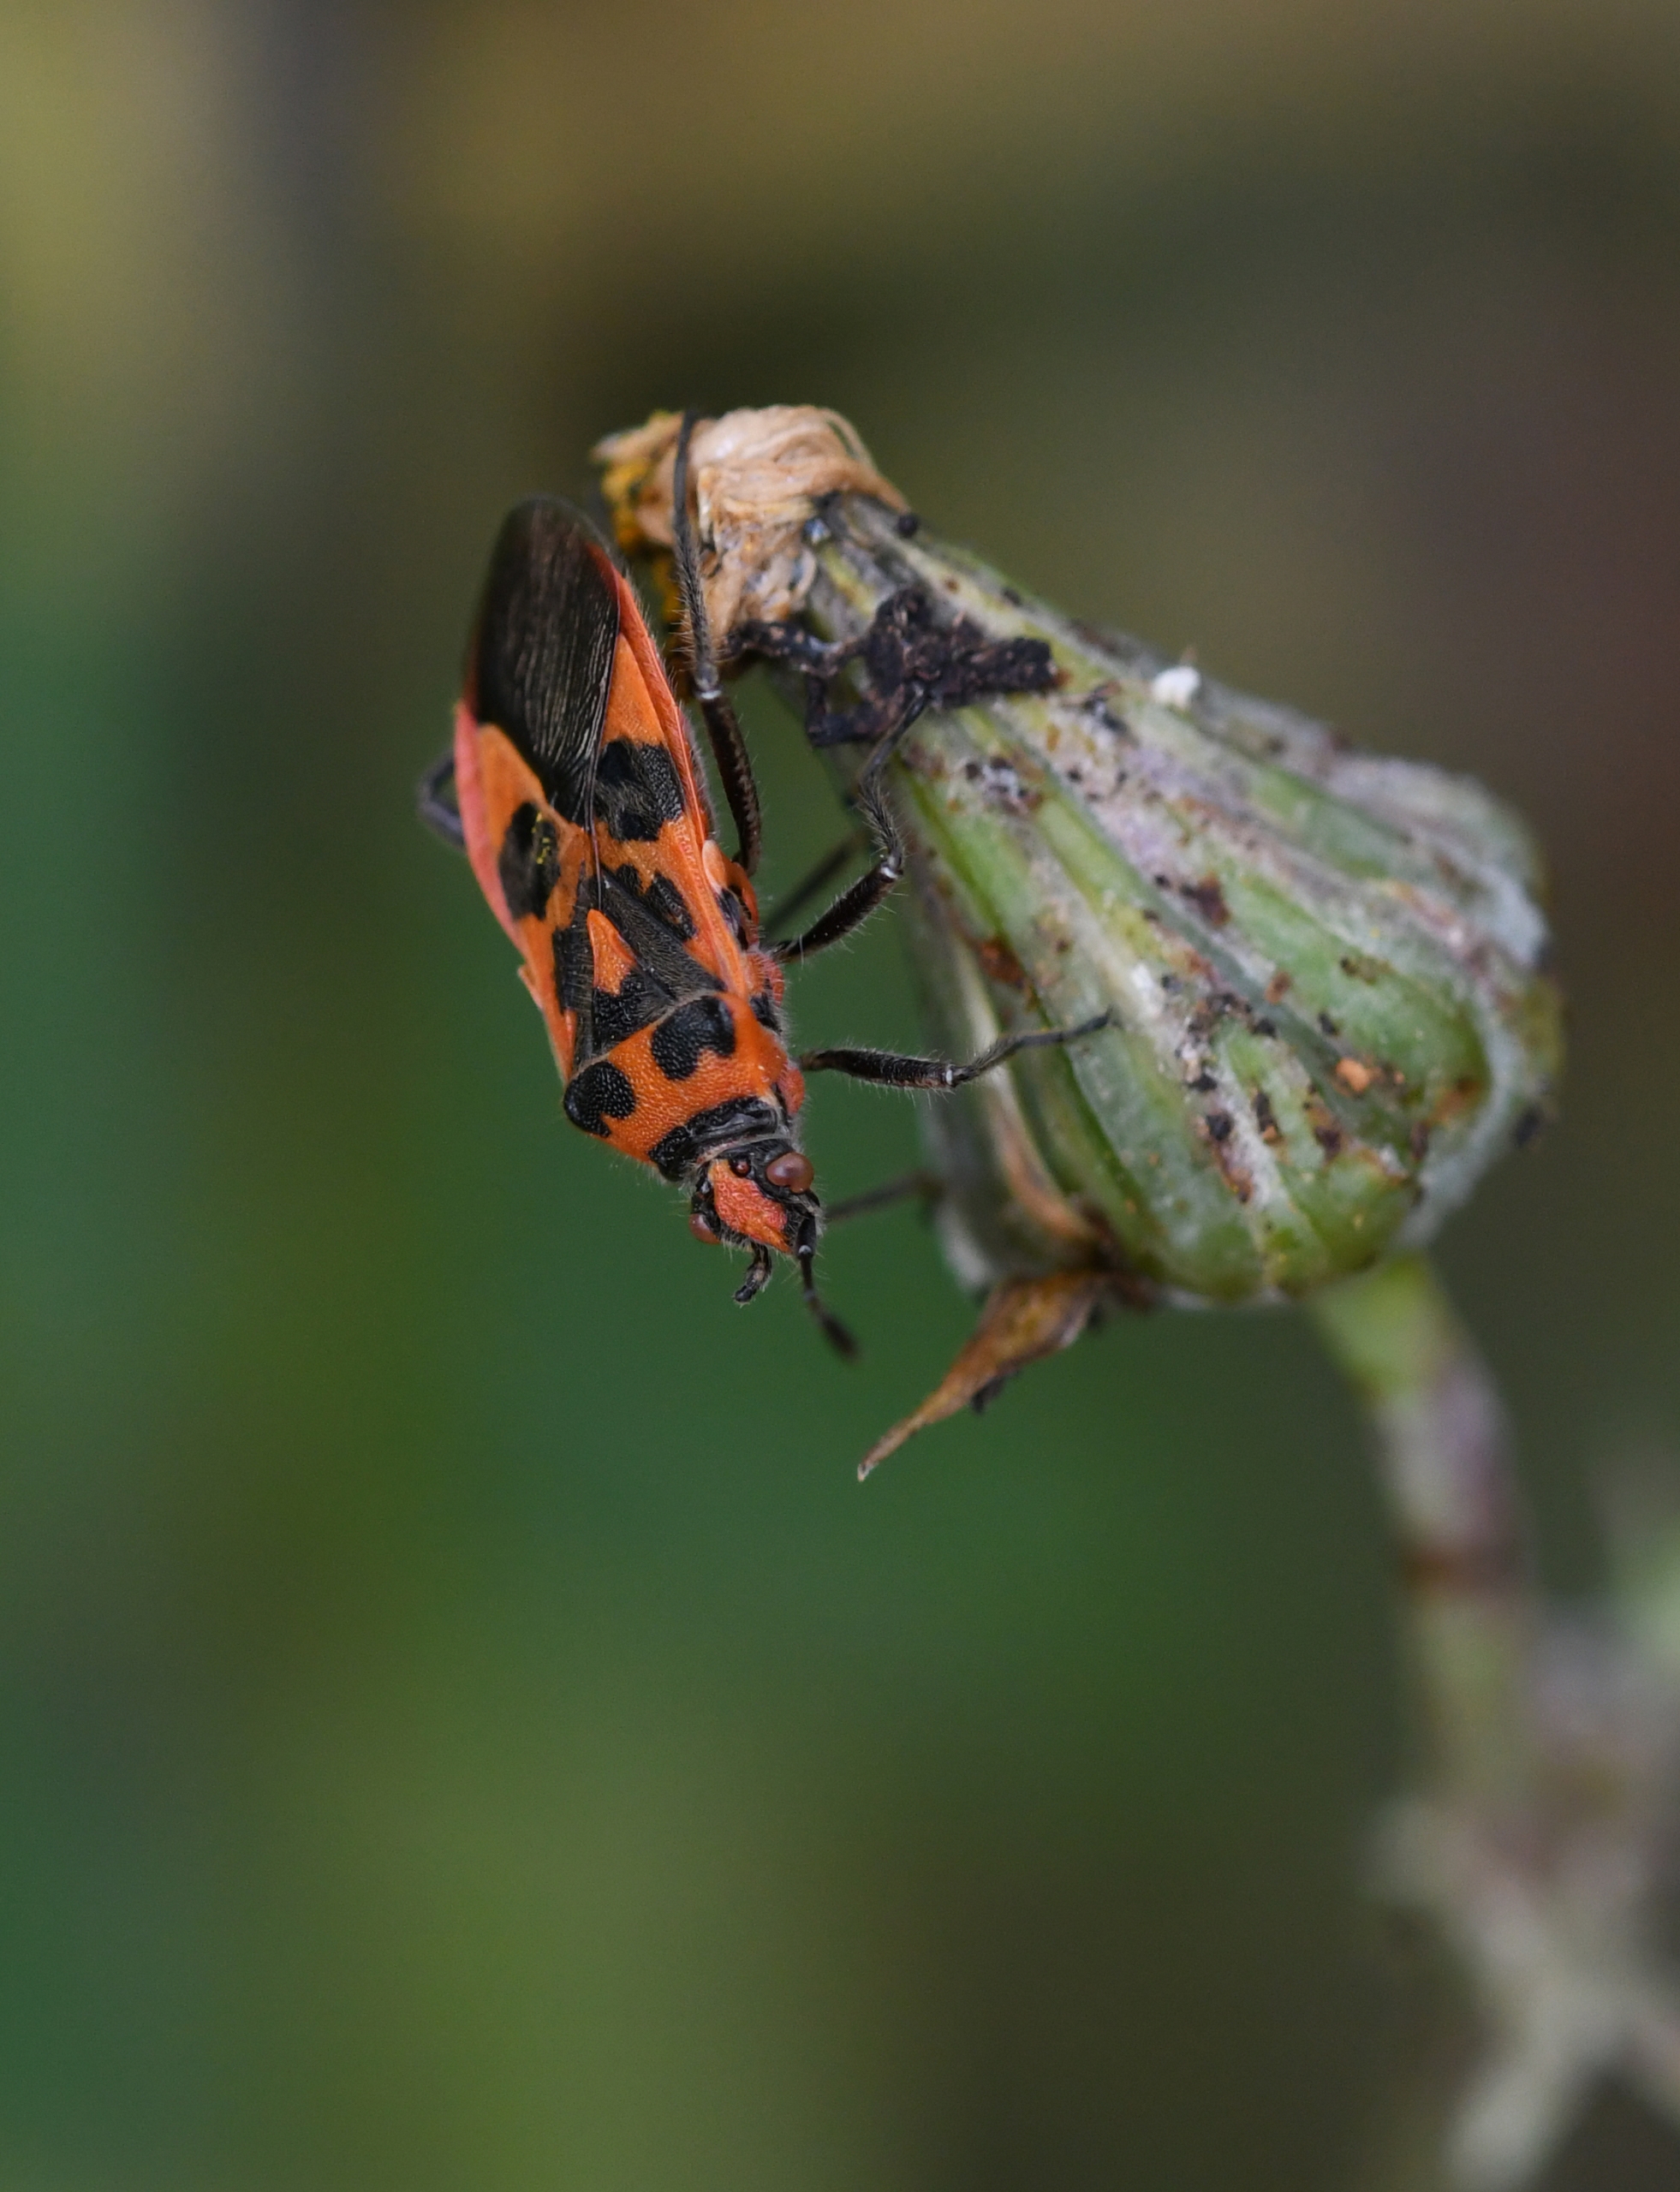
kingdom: Animalia
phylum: Arthropoda
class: Insecta
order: Hemiptera
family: Rhopalidae
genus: Corizus
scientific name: Corizus hyoscyami
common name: Rød kanttæge
